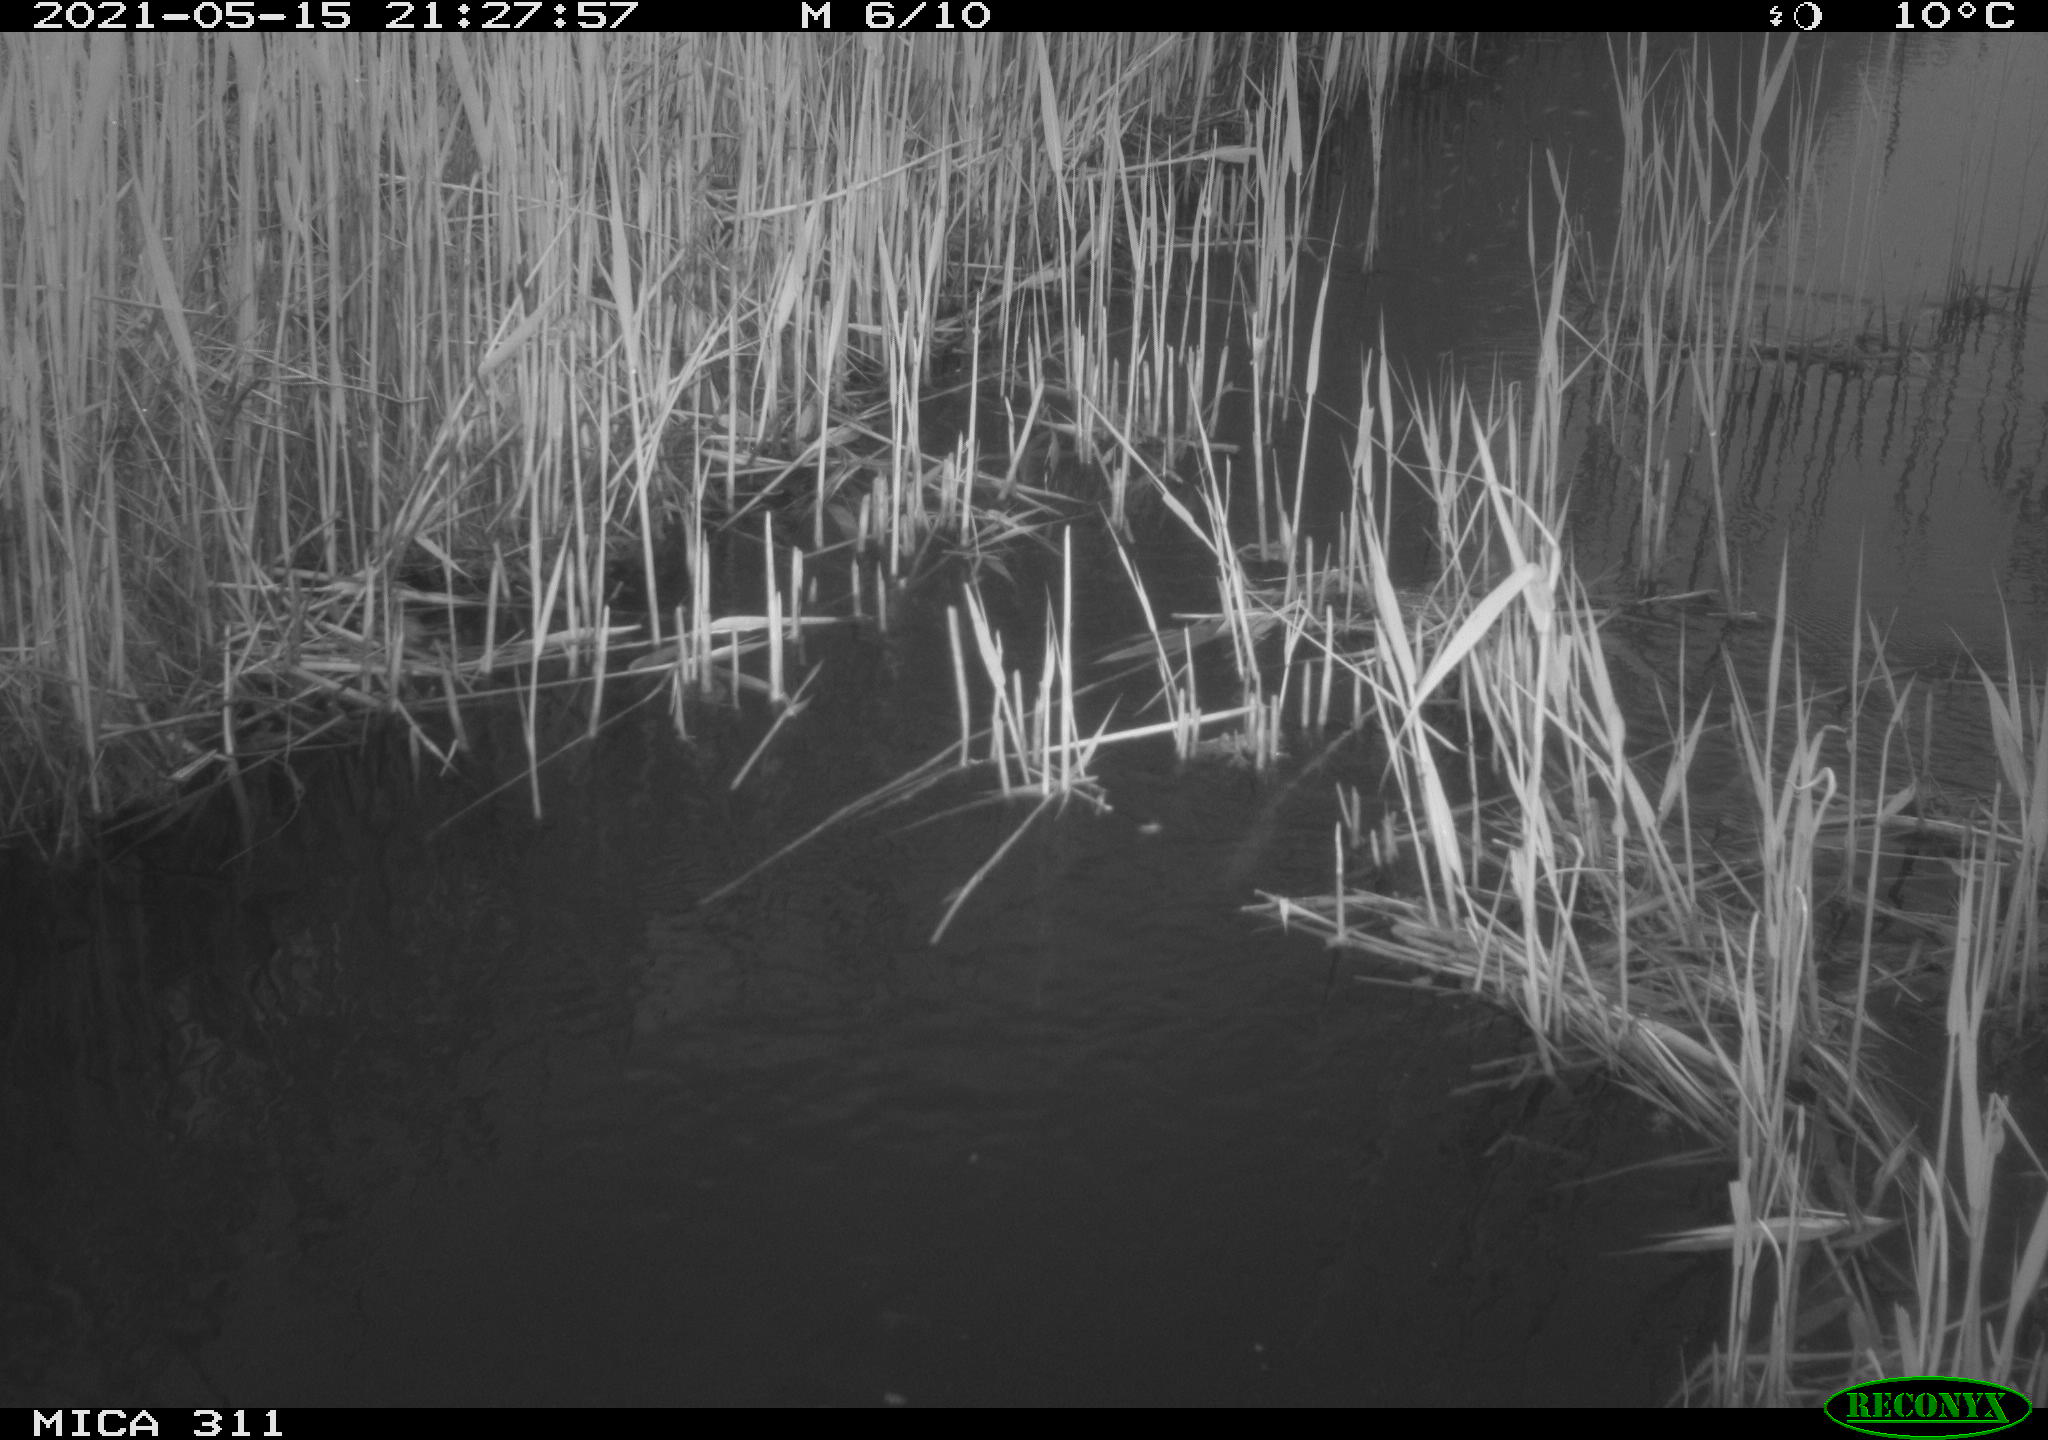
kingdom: Animalia
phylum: Chordata
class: Aves
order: Gruiformes
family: Rallidae
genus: Gallinula
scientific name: Gallinula chloropus
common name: Common moorhen
